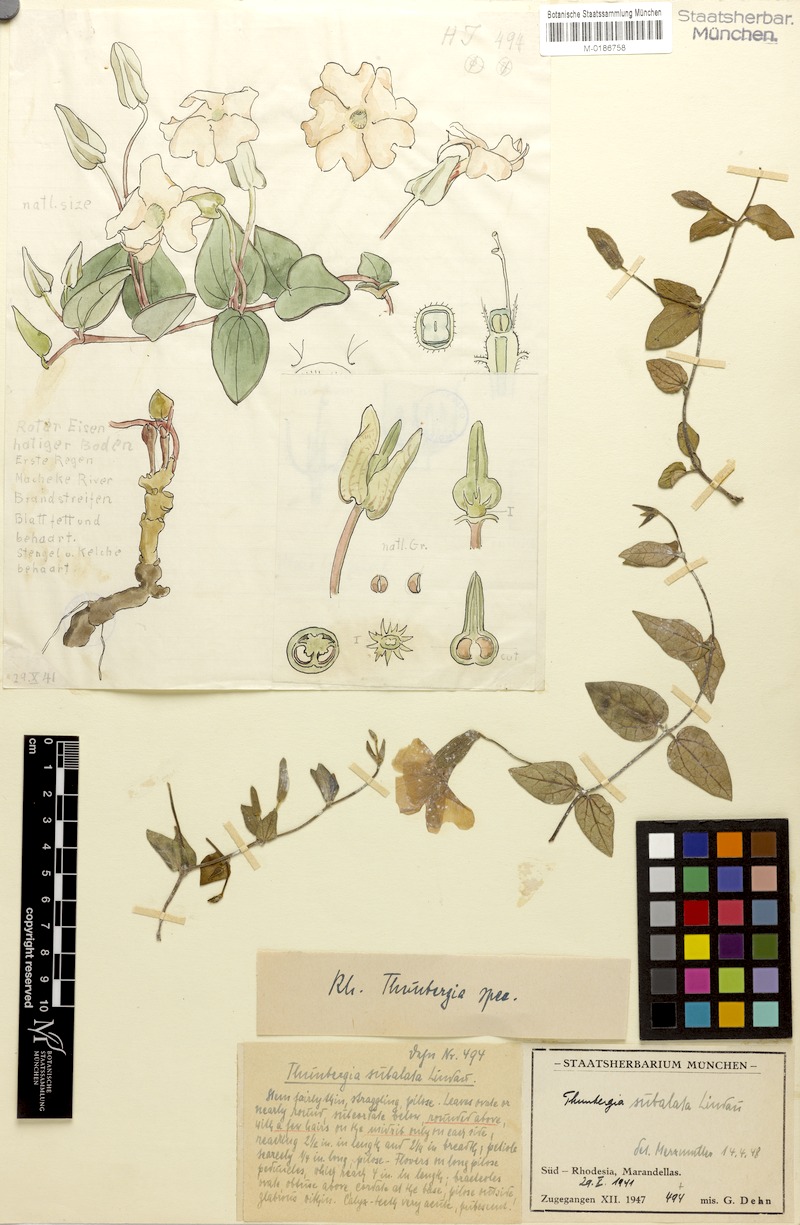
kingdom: Plantae
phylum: Tracheophyta
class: Magnoliopsida
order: Lamiales
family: Acanthaceae
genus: Thunbergia
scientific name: Thunbergia subalata
